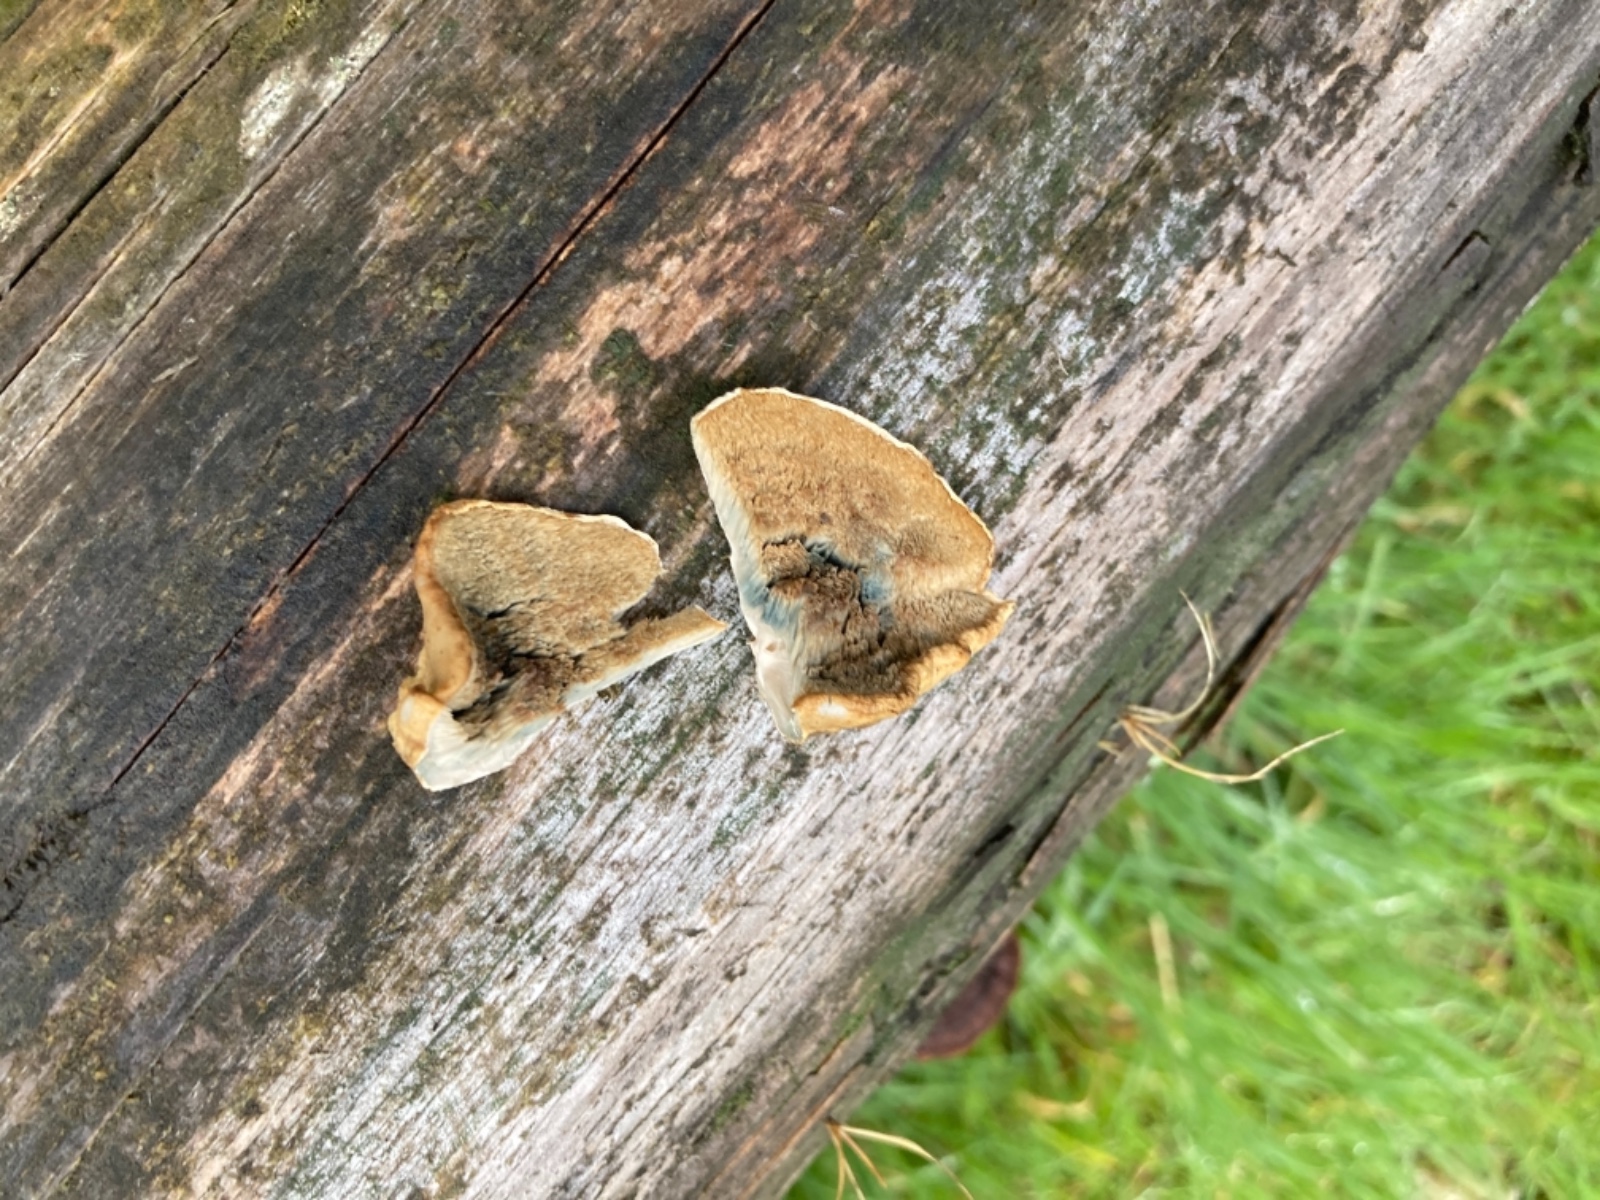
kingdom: Fungi
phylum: Basidiomycota
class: Agaricomycetes
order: Polyporales
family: Polyporaceae
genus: Cyanosporus
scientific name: Cyanosporus caesius
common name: blålig kødporesvamp
